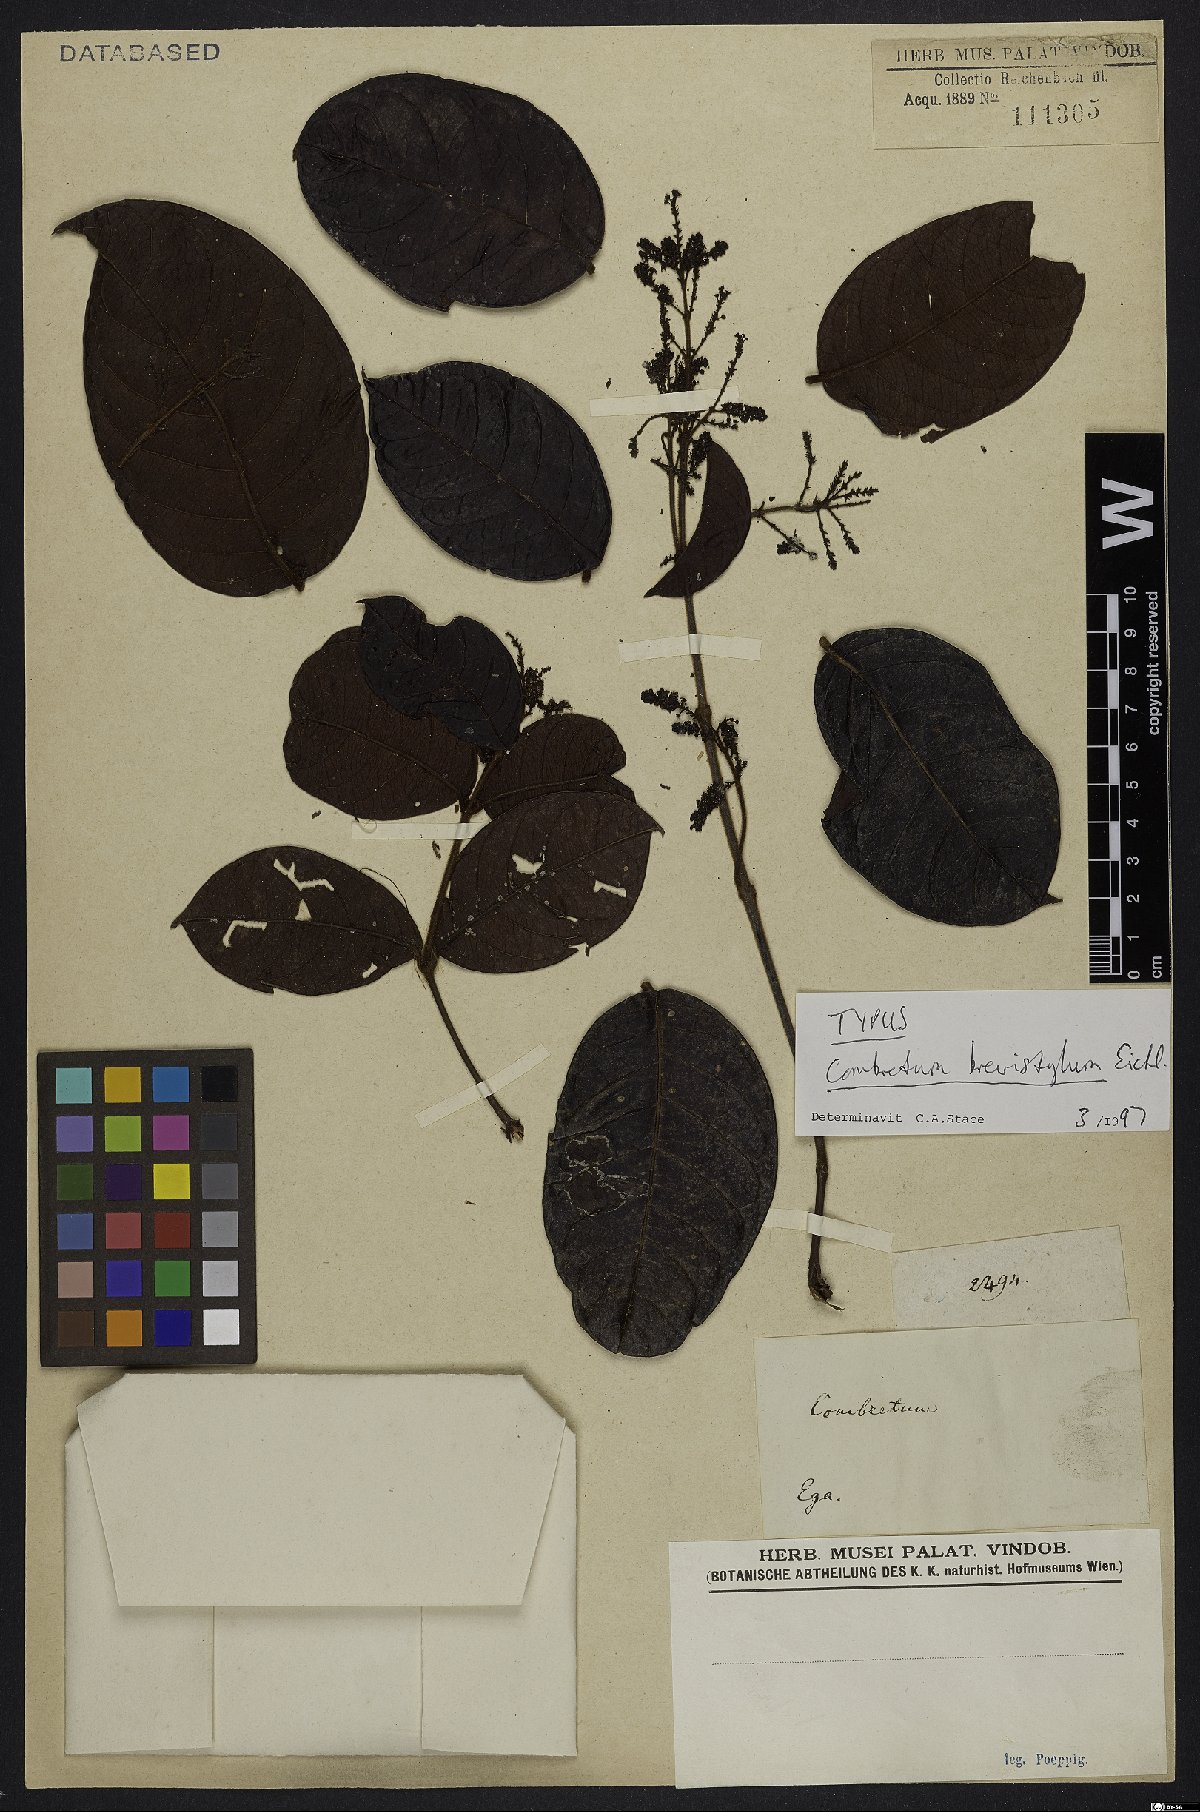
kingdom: Plantae
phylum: Tracheophyta
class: Magnoliopsida
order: Myrtales
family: Combretaceae
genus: Combretum
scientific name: Combretum brevistylum
